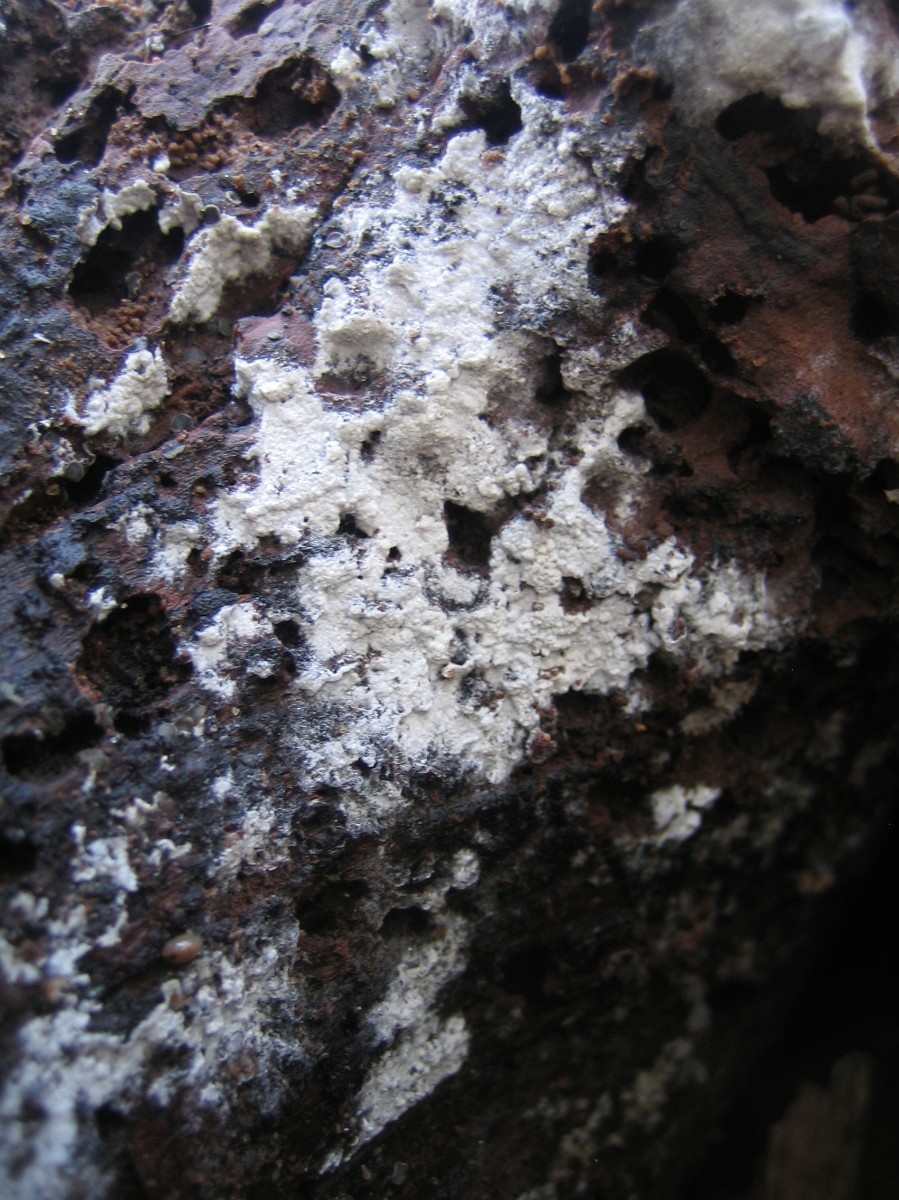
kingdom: Fungi
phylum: Basidiomycota
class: Agaricomycetes
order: Corticiales
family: Corticiaceae
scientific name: Corticiaceae
